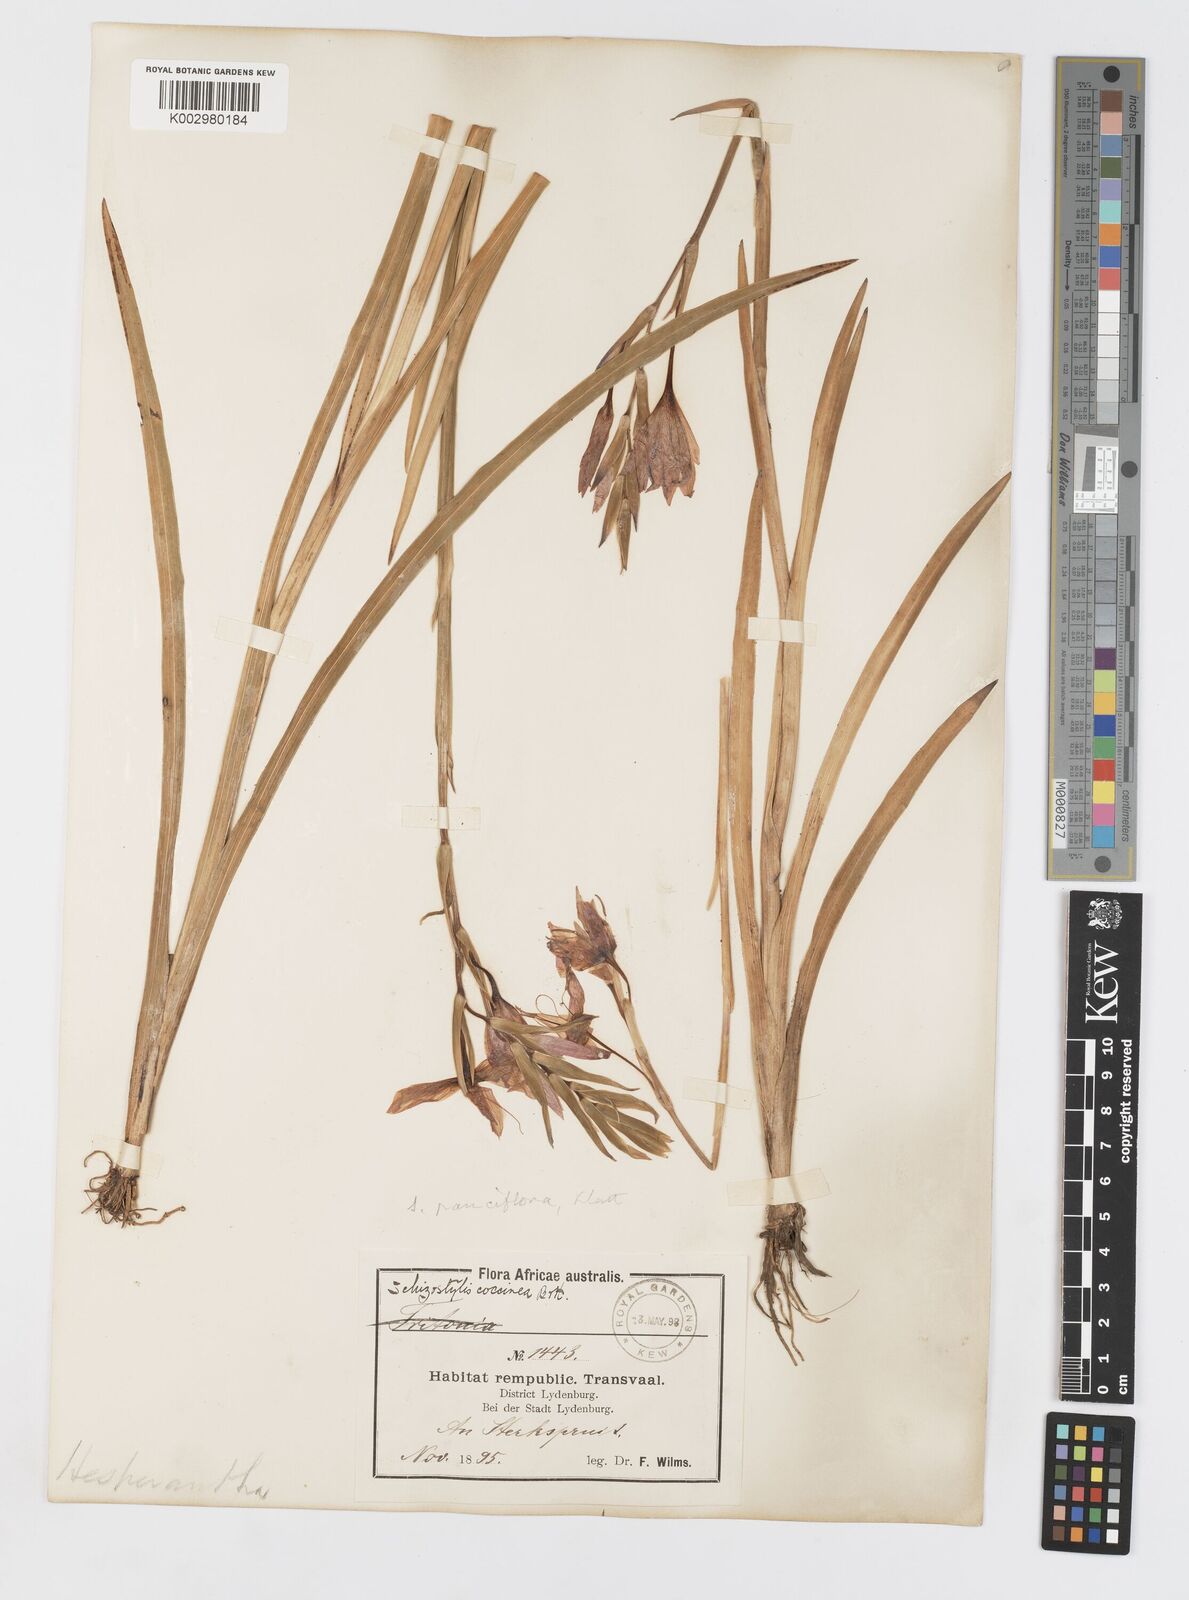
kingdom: Plantae
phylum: Tracheophyta
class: Liliopsida
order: Asparagales
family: Iridaceae
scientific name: Iridaceae
